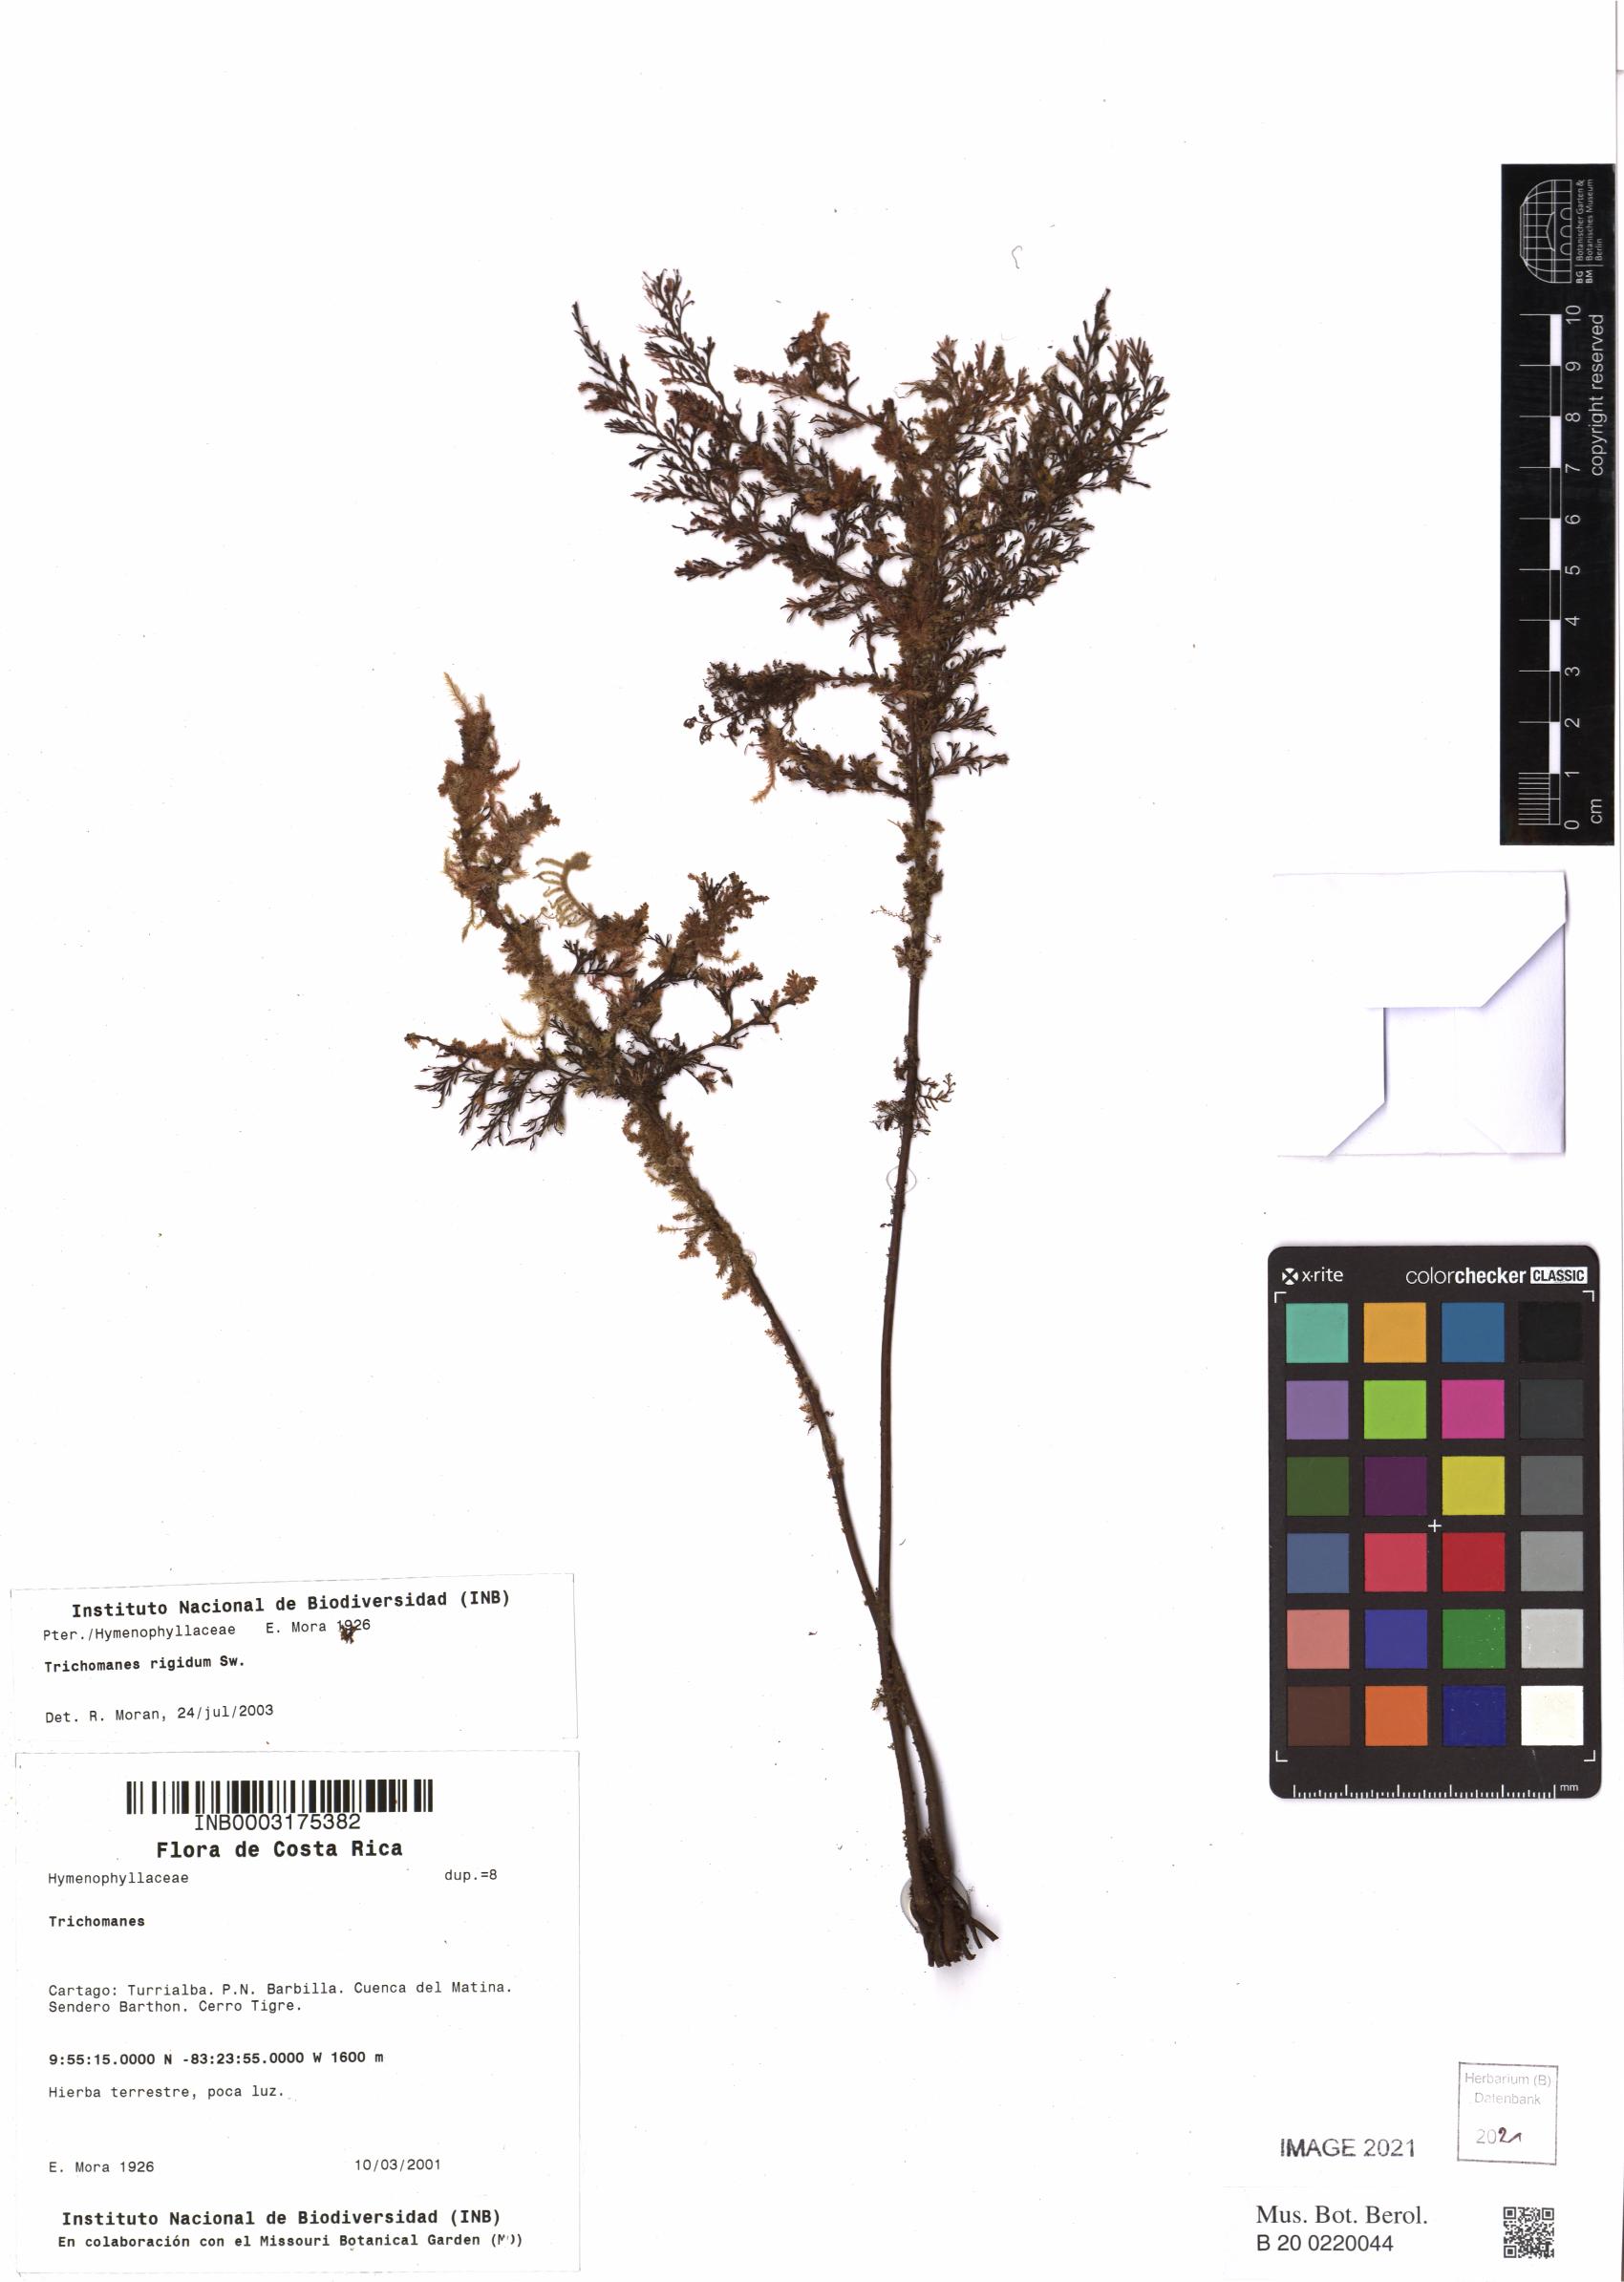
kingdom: Plantae
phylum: Tracheophyta
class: Polypodiopsida
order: Hymenophyllales
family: Hymenophyllaceae
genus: Abrodictyum
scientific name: Abrodictyum rigidum
